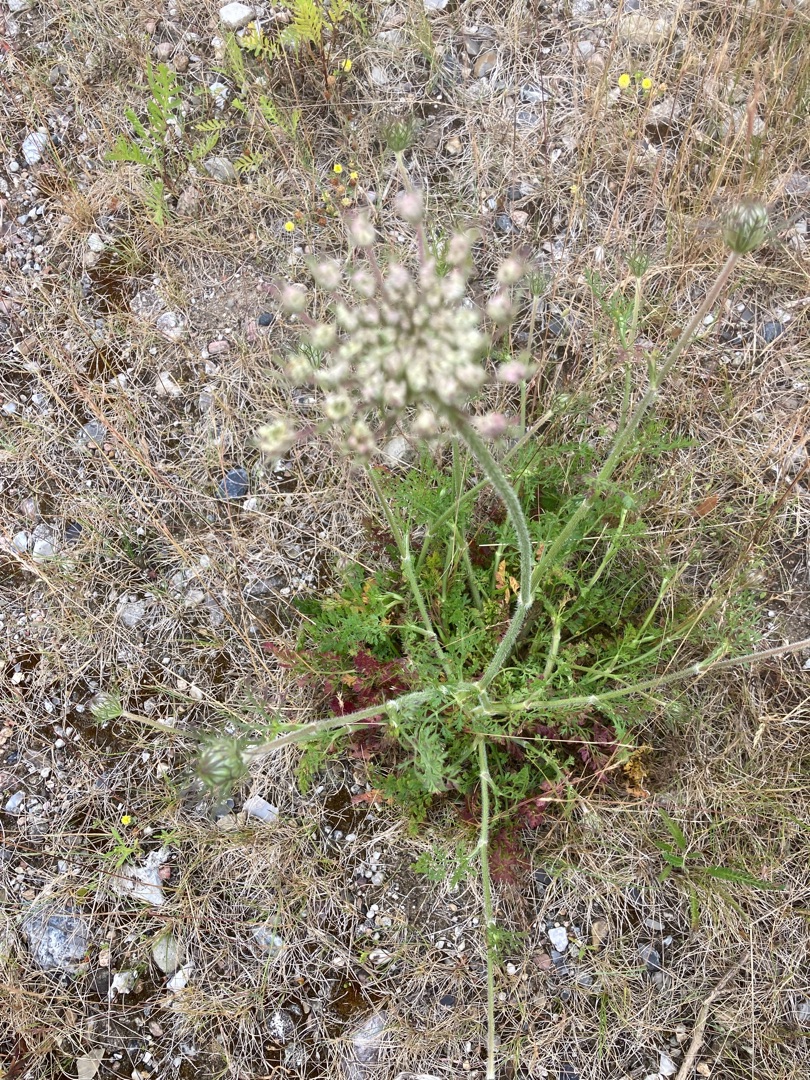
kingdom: Plantae
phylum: Tracheophyta
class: Magnoliopsida
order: Apiales
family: Apiaceae
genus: Daucus
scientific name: Daucus carota
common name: Vild gulerod
